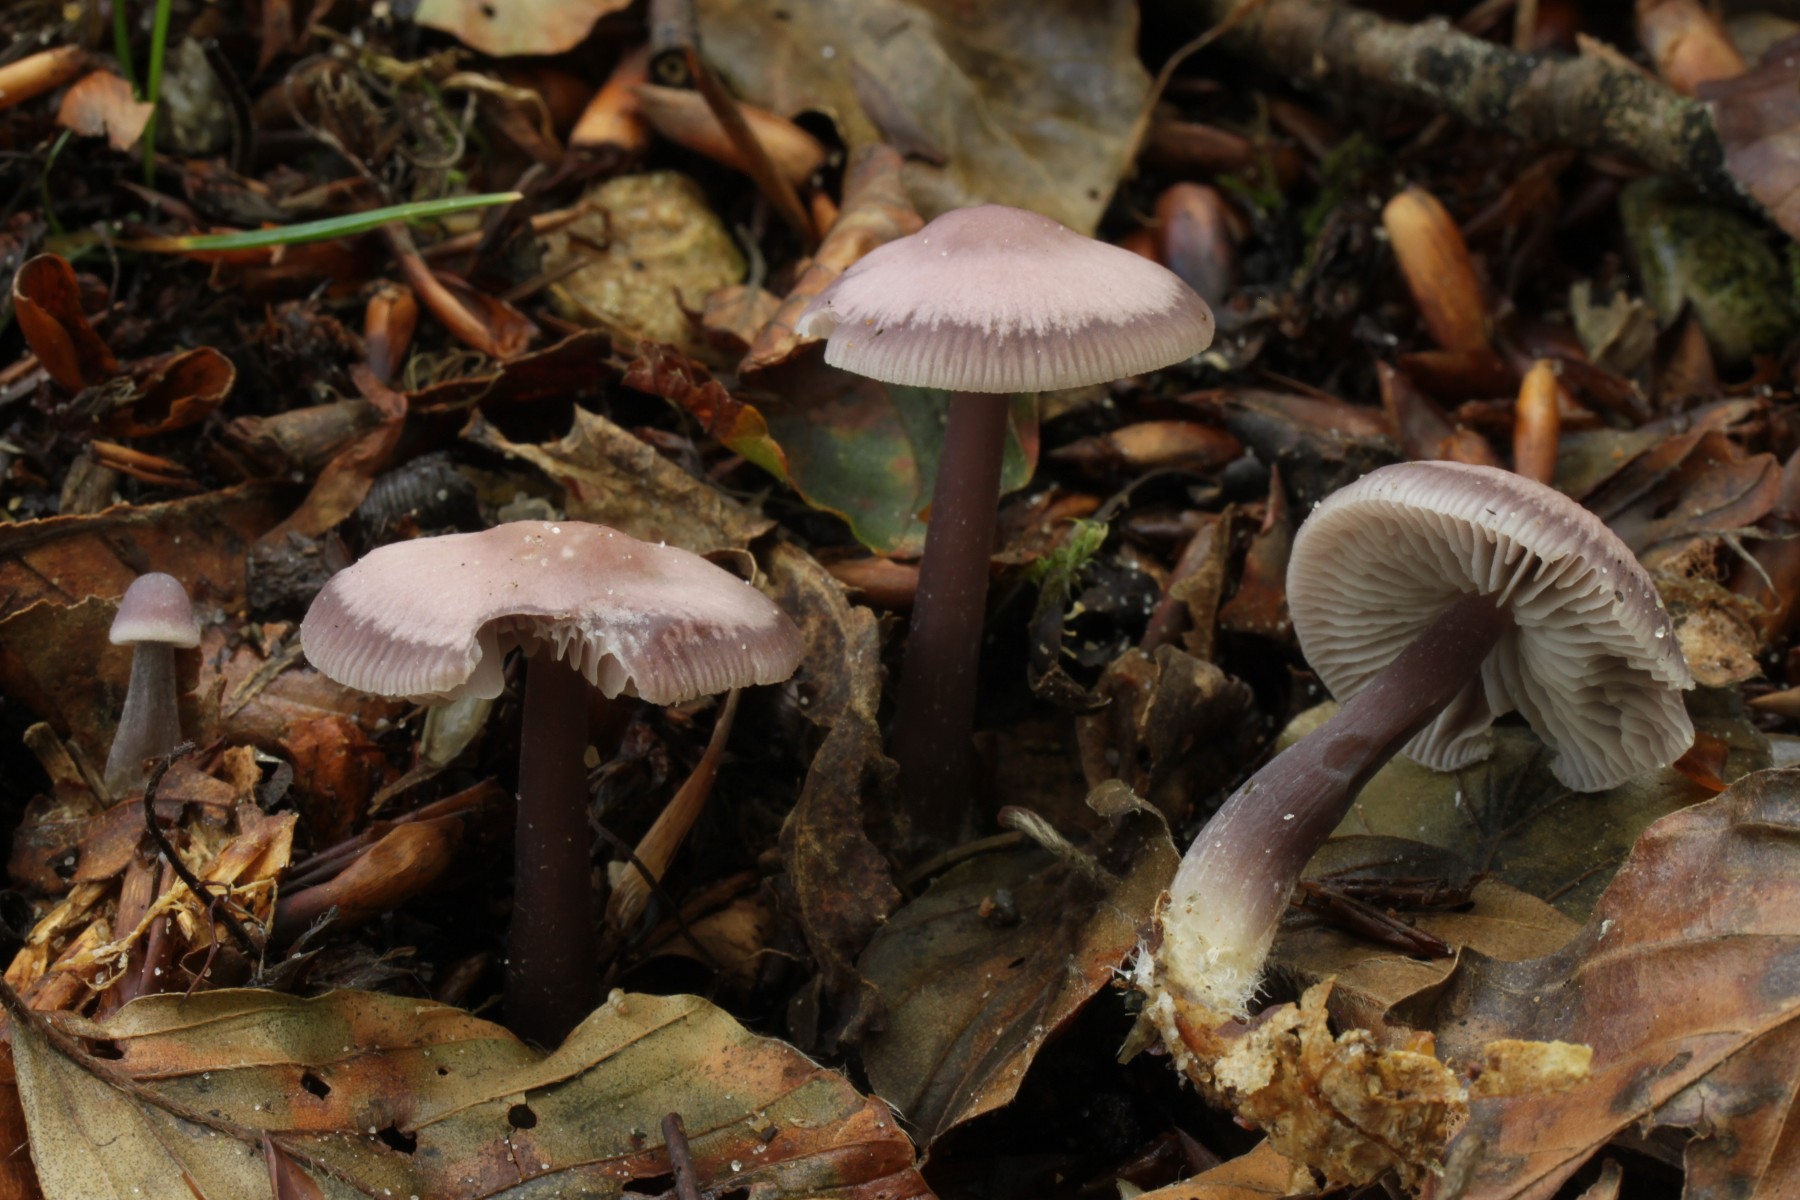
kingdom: Fungi
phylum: Basidiomycota
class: Agaricomycetes
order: Agaricales
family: Mycenaceae
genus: Prunulus
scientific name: Prunulus diosmus
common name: tobaks-huesvamp
